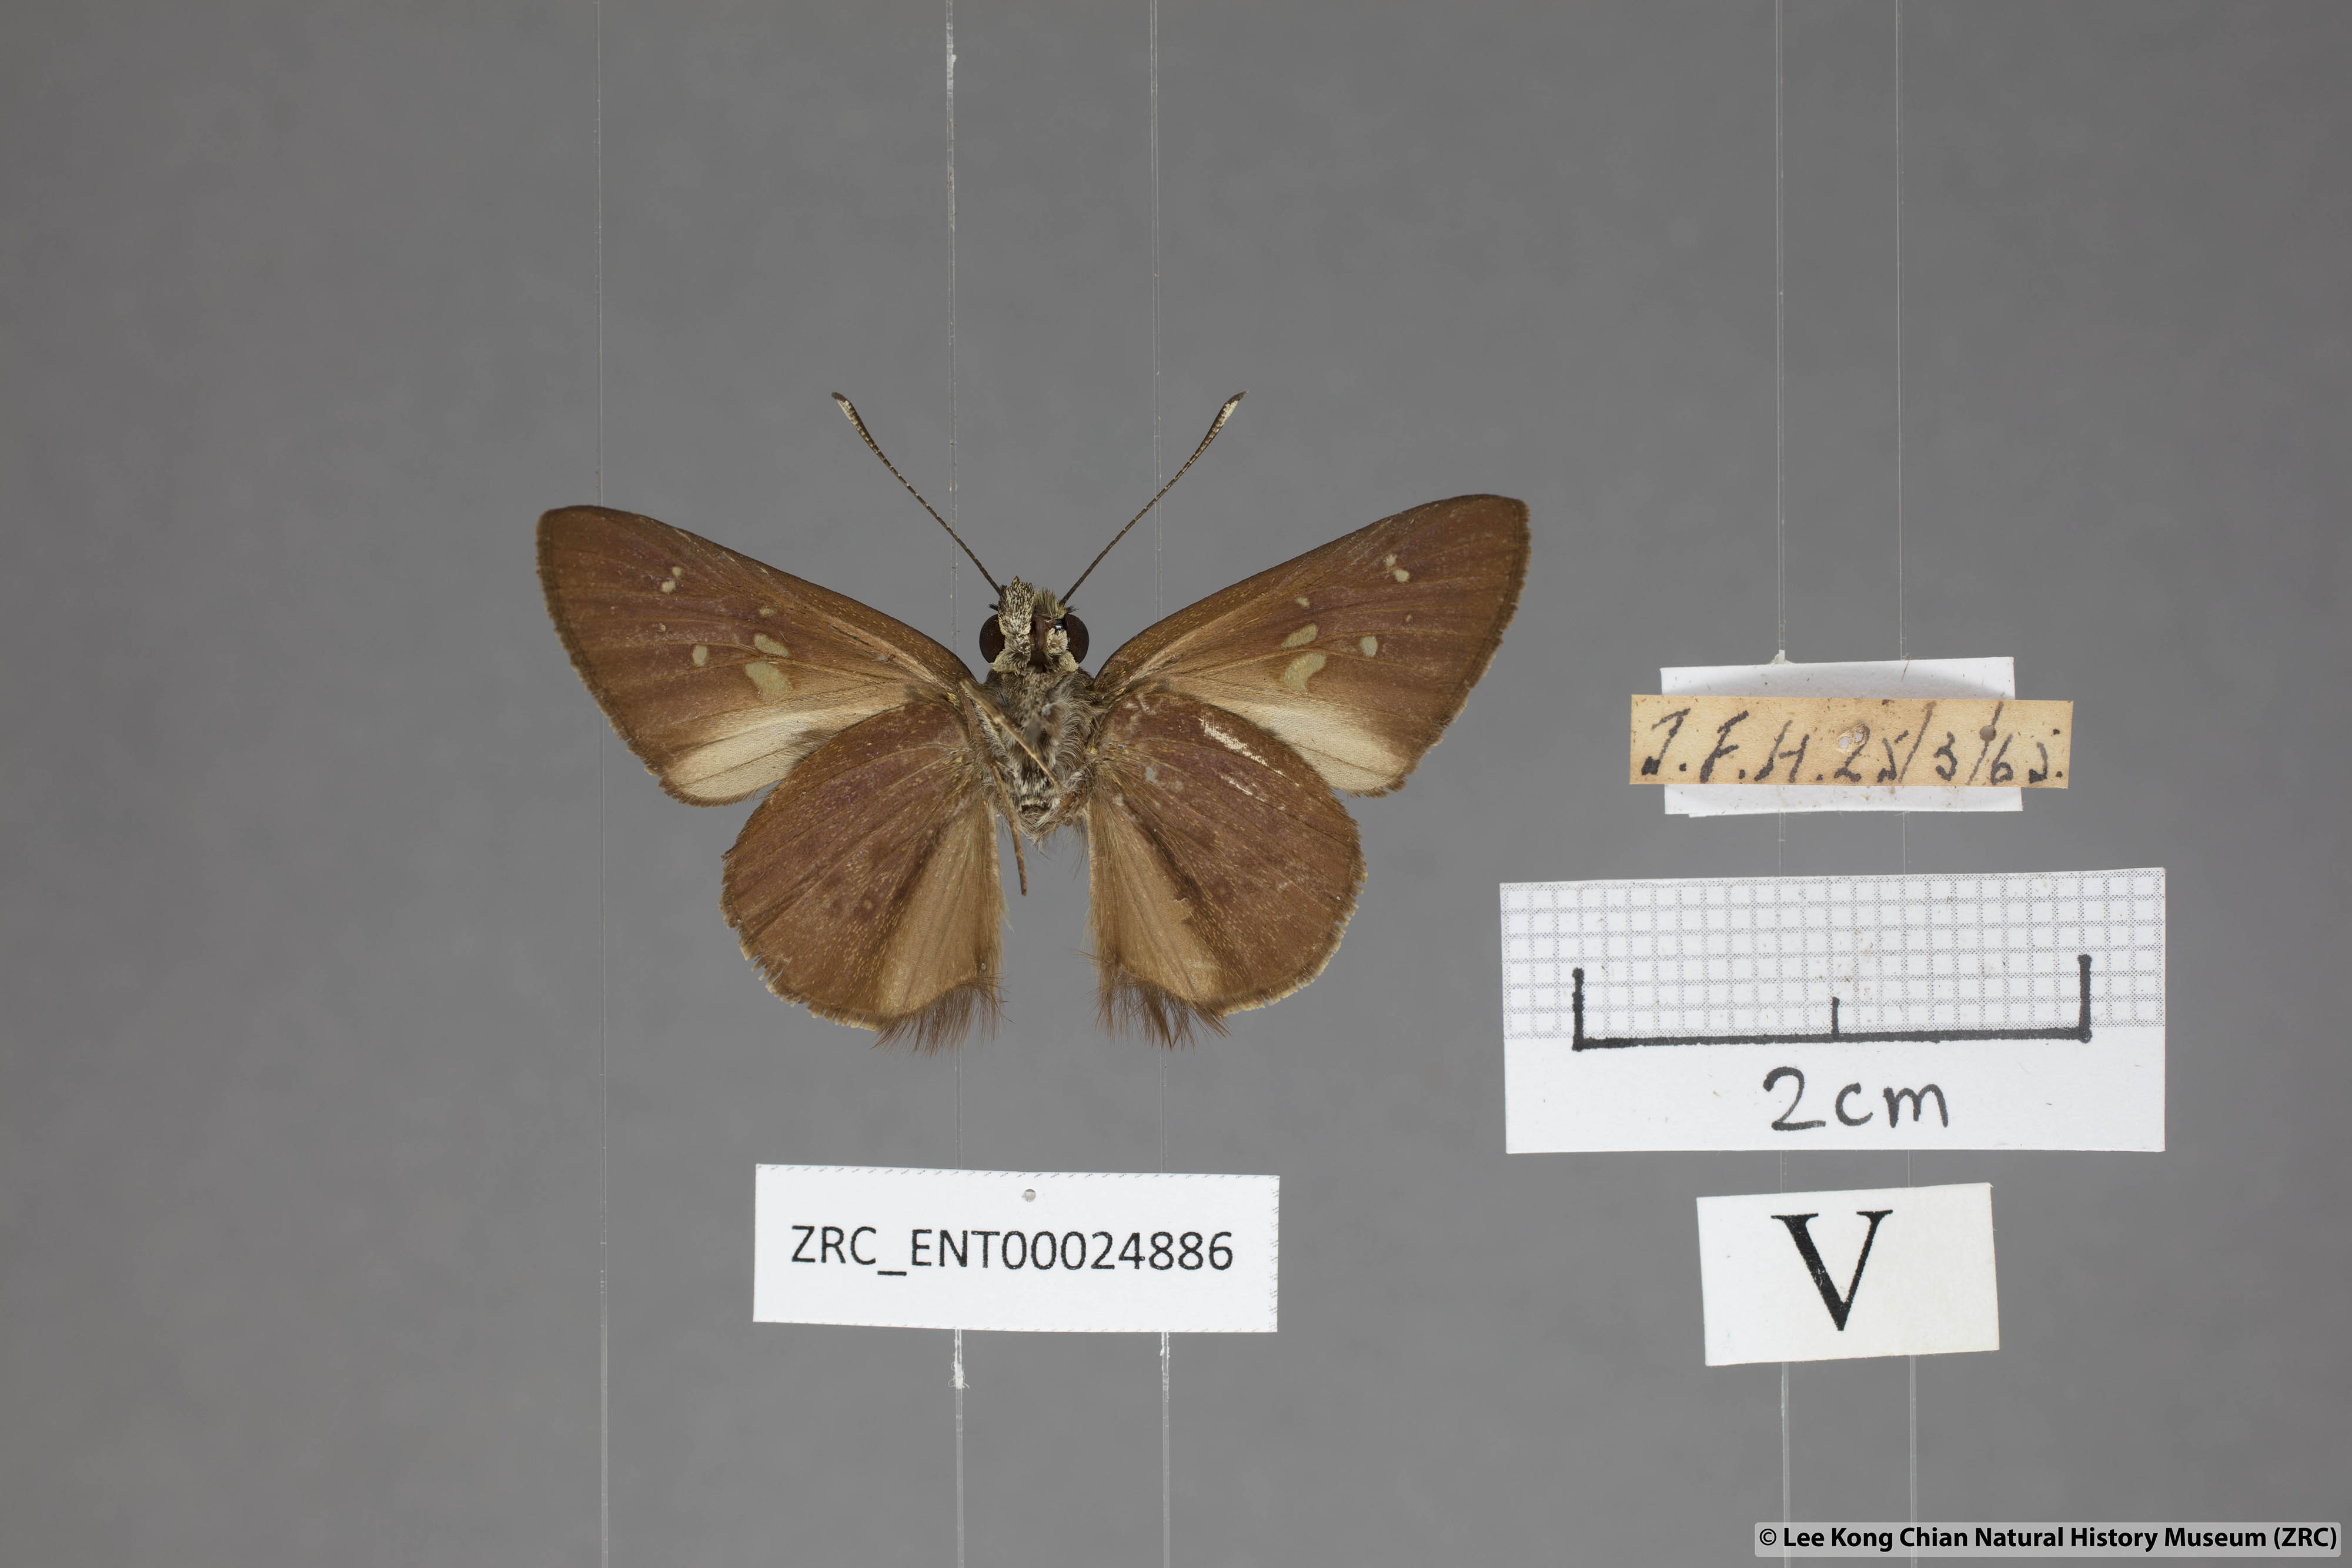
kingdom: Animalia
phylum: Arthropoda
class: Insecta
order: Lepidoptera
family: Hesperiidae
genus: Isma
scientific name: Isma protoclea
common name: Bicolour long-horned flitter
